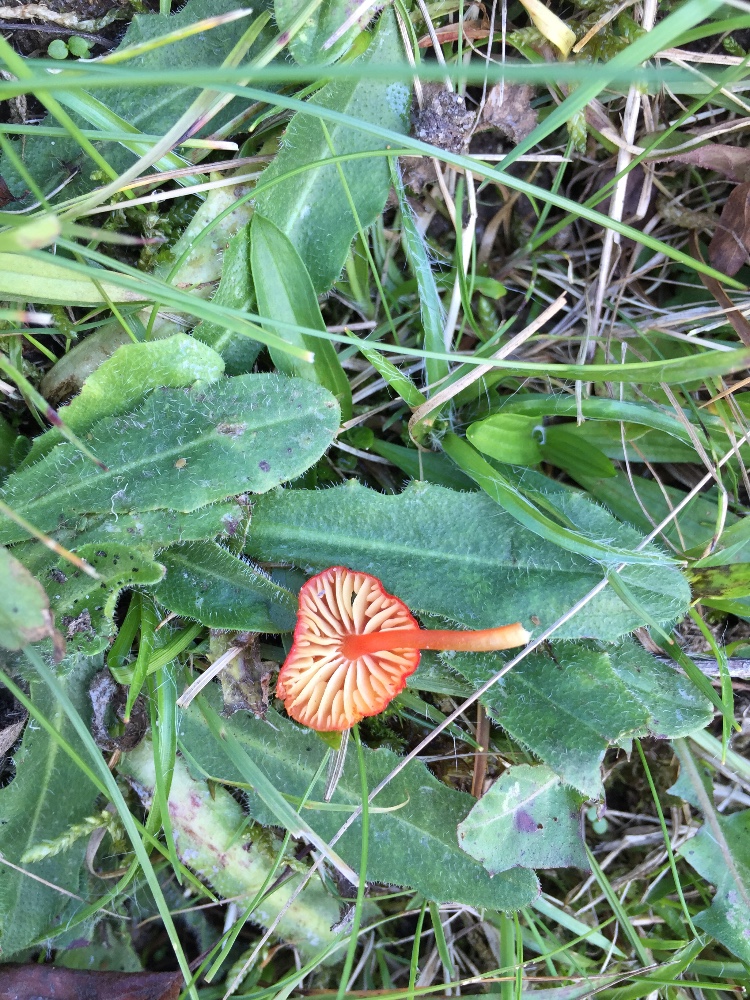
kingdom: Fungi
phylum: Basidiomycota
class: Agaricomycetes
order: Agaricales
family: Hygrophoraceae
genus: Hygrocybe
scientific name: Hygrocybe helobia
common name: hvidløgs-vokshat
